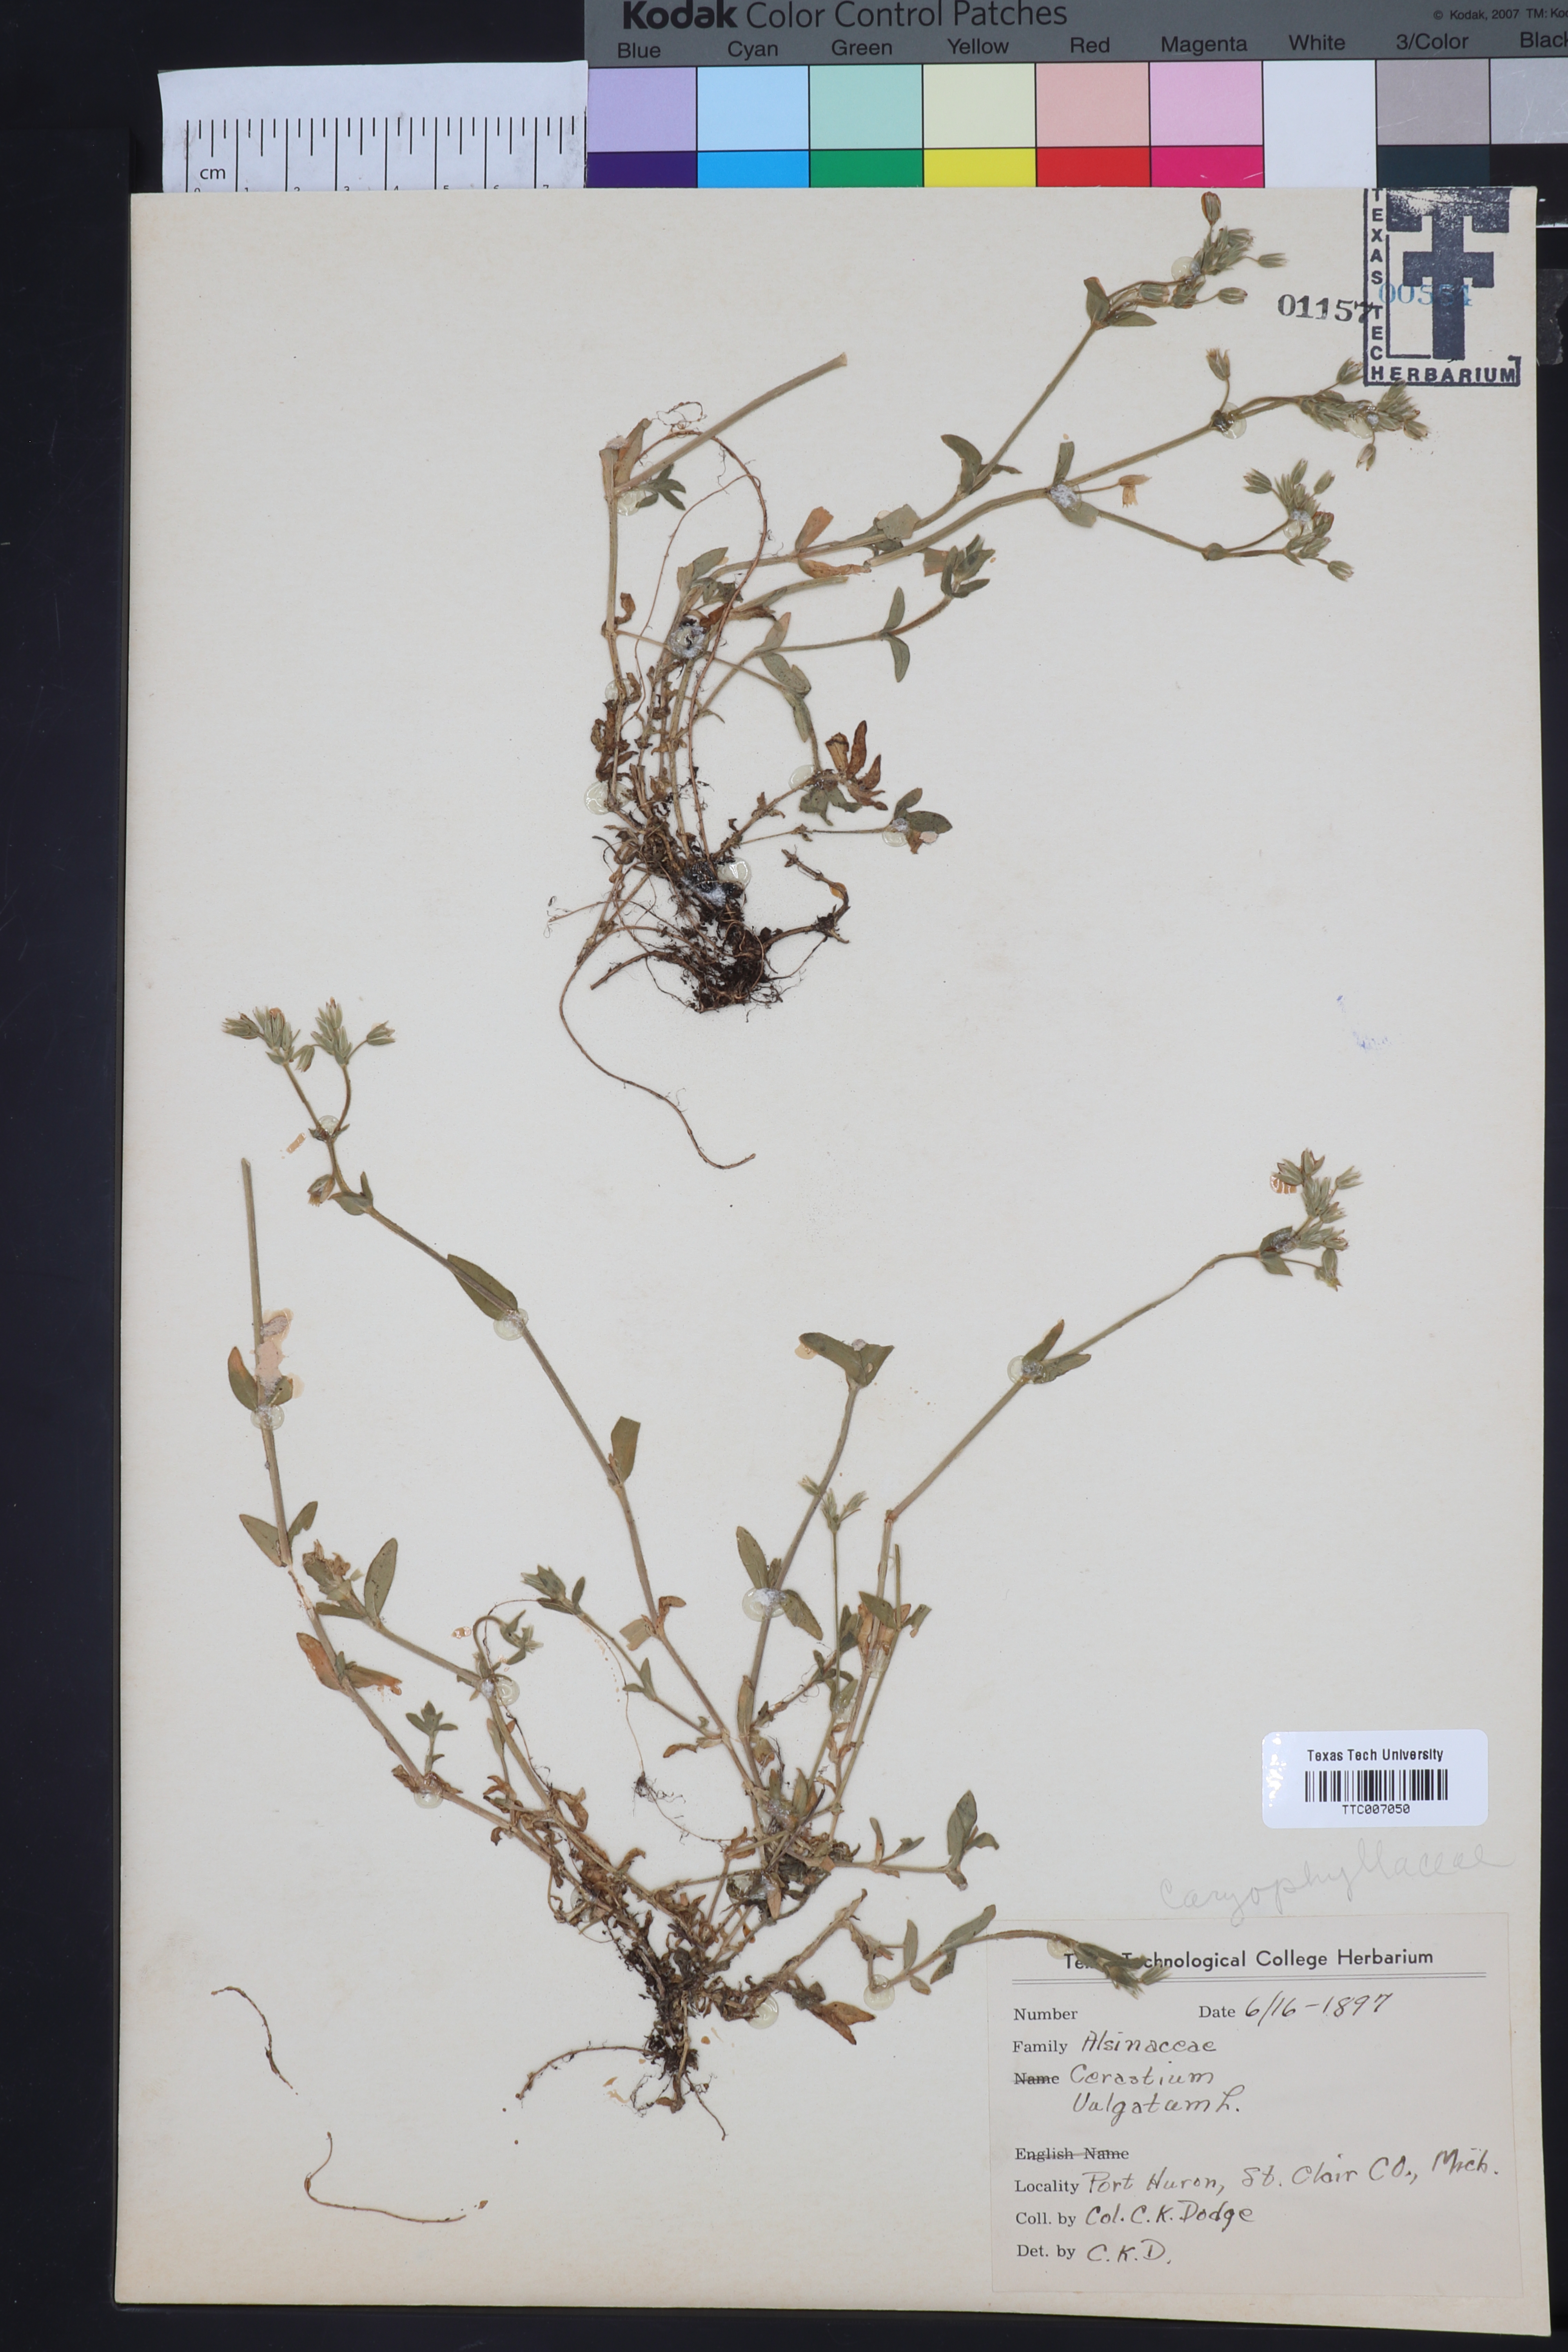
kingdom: Plantae
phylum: Tracheophyta
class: Magnoliopsida
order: Caryophyllales
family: Caryophyllaceae
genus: Cerastium
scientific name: Cerastium
